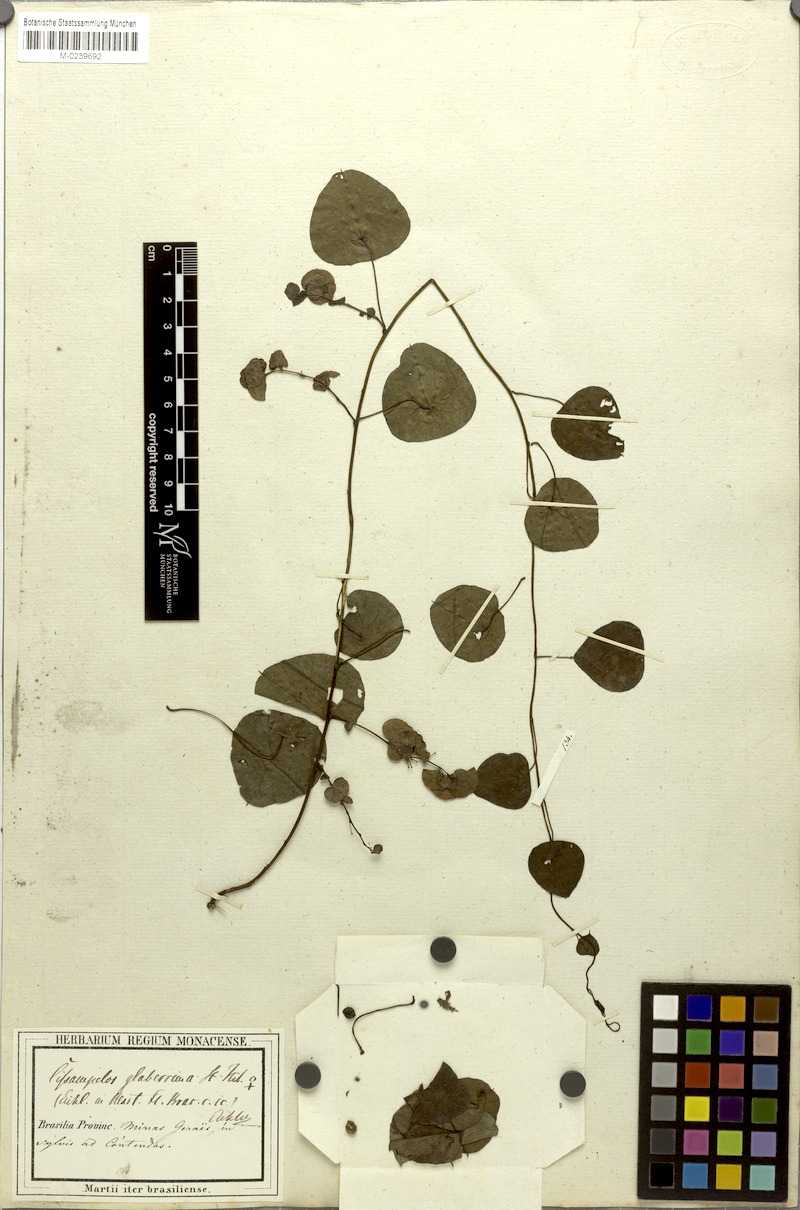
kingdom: Plantae
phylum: Tracheophyta
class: Magnoliopsida
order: Ranunculales
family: Menispermaceae
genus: Cissampelos
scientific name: Cissampelos glaberrima
